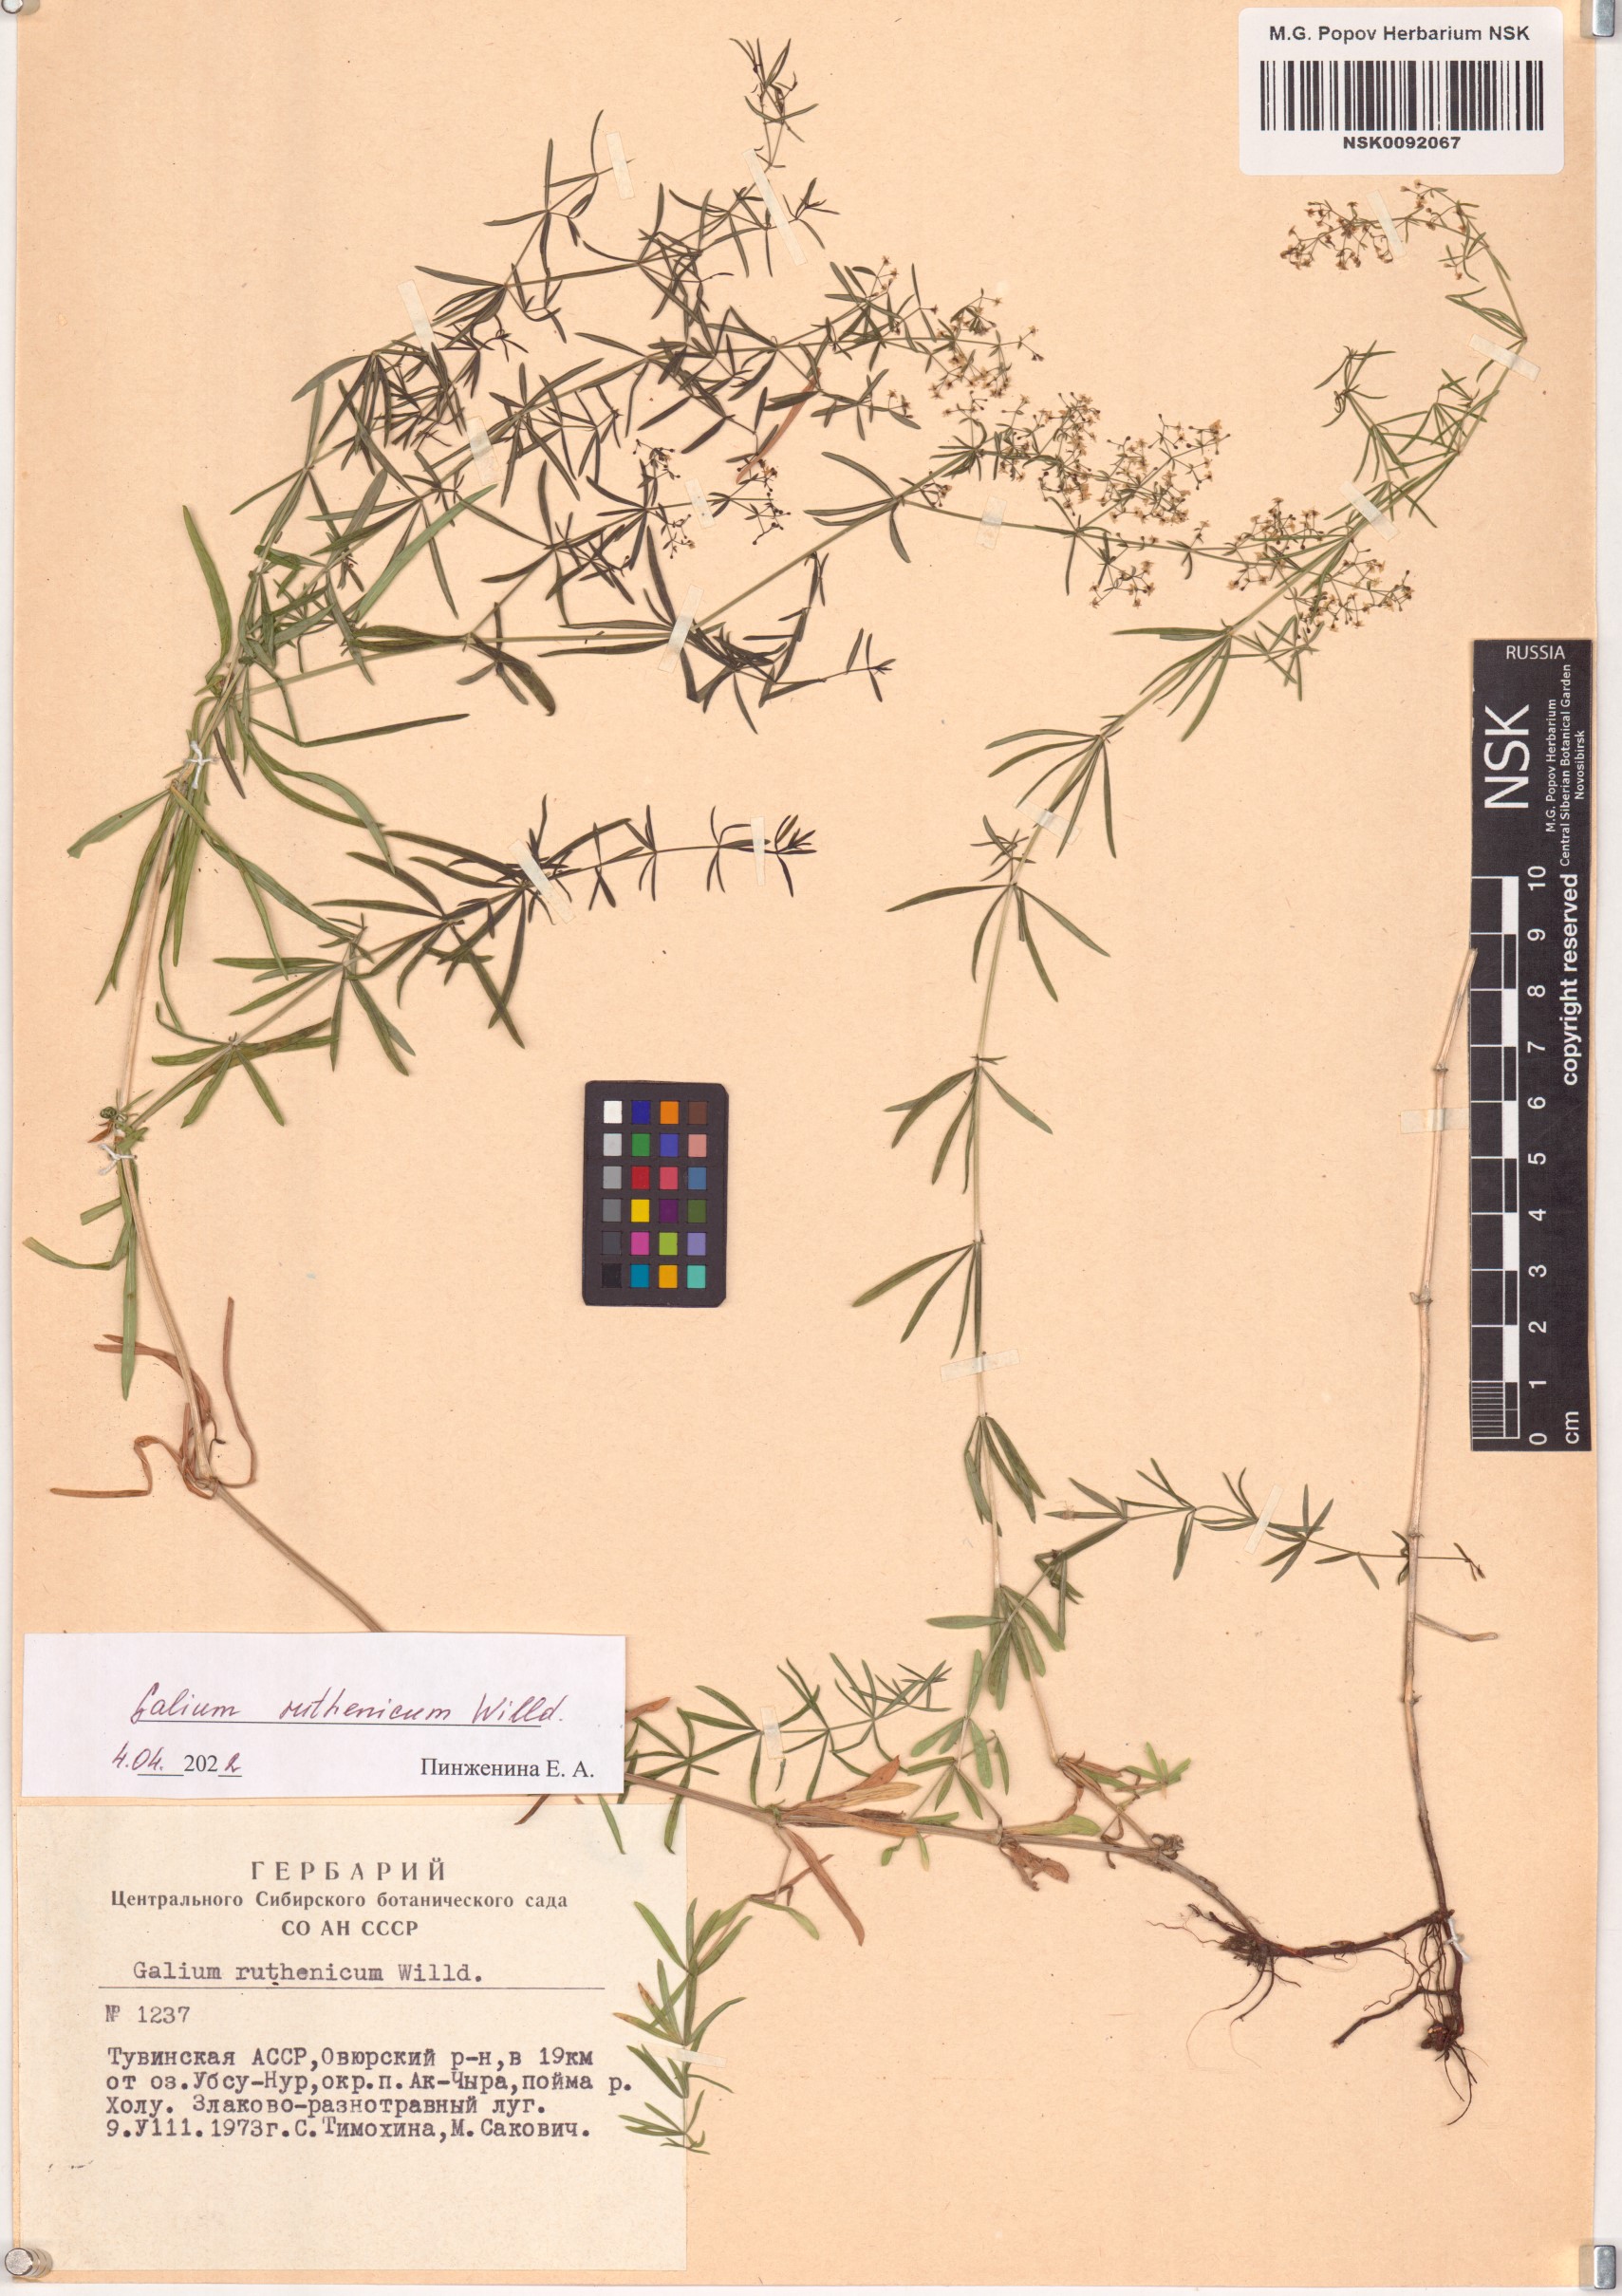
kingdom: Plantae
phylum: Tracheophyta
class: Magnoliopsida
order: Gentianales
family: Rubiaceae
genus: Galium
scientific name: Galium verum
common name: Lady's bedstraw
